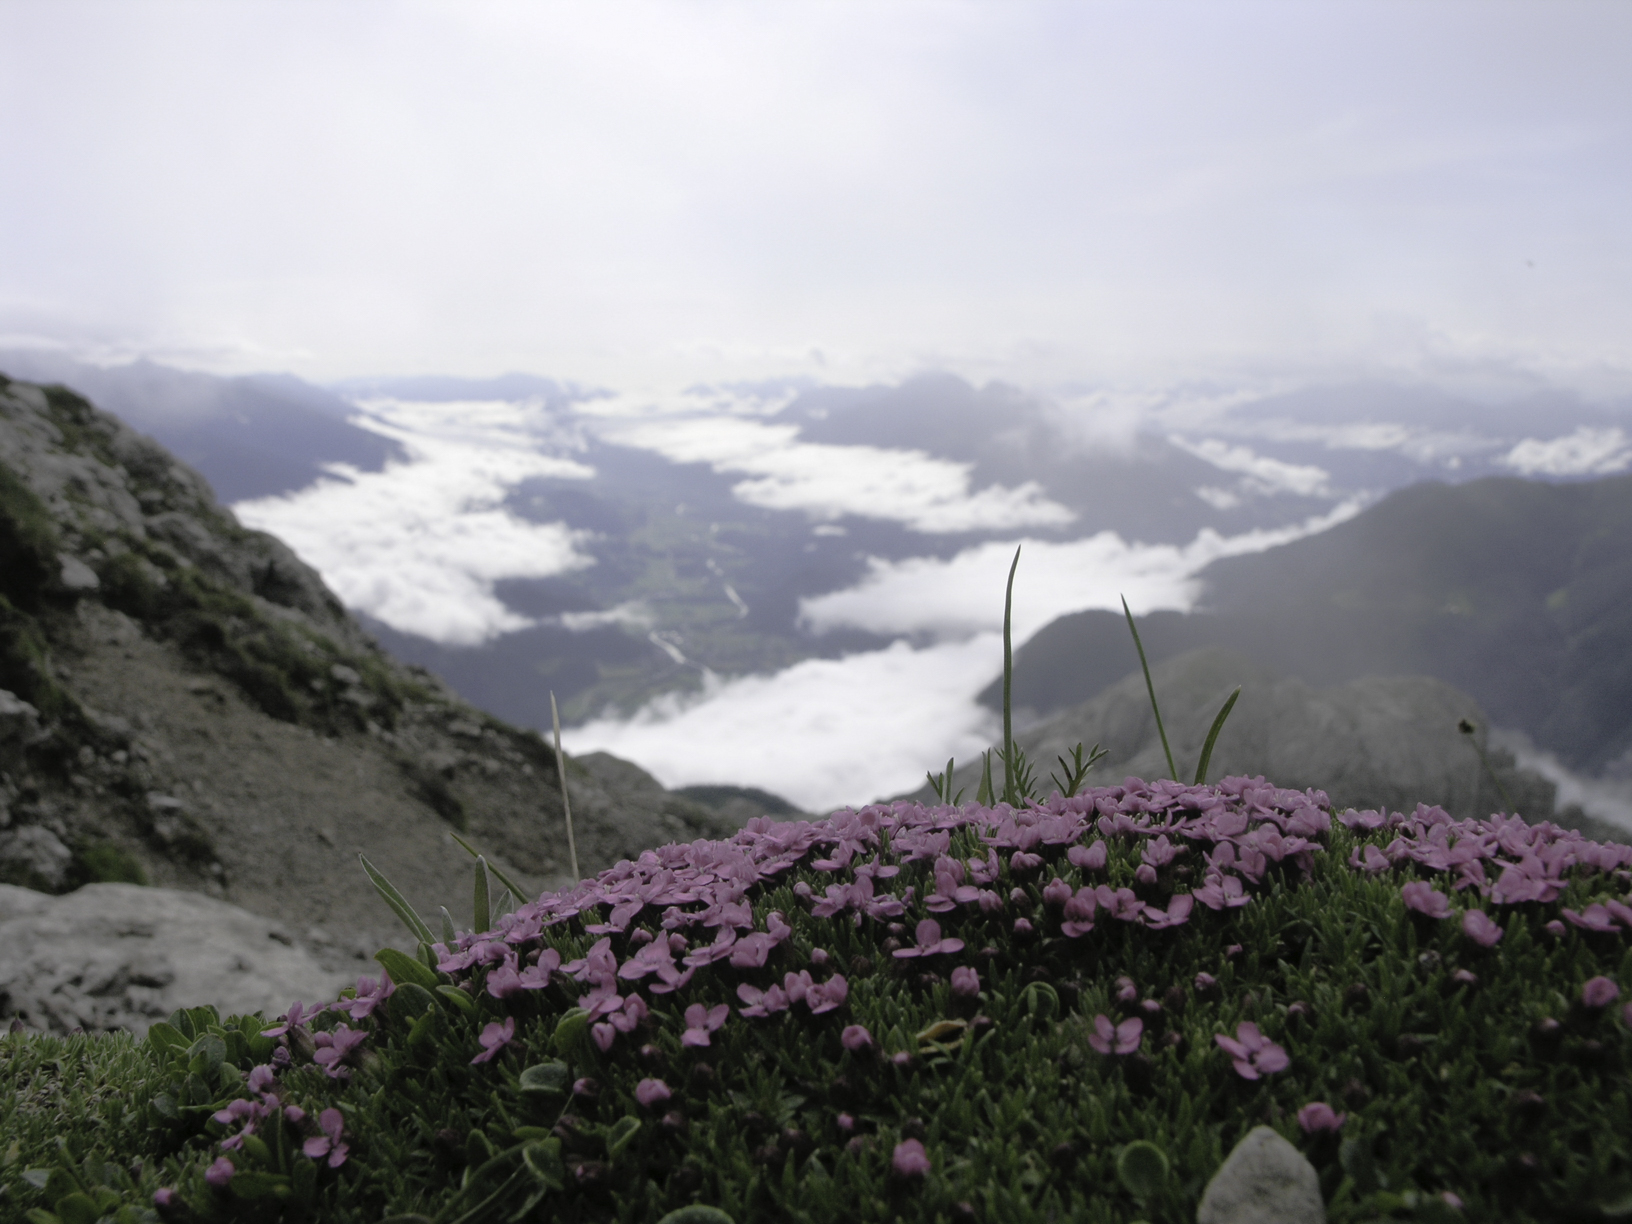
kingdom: Plantae
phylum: Tracheophyta
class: Magnoliopsida
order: Caryophyllales
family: Caryophyllaceae
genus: Silene
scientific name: Silene acaulis
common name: Moss campion
